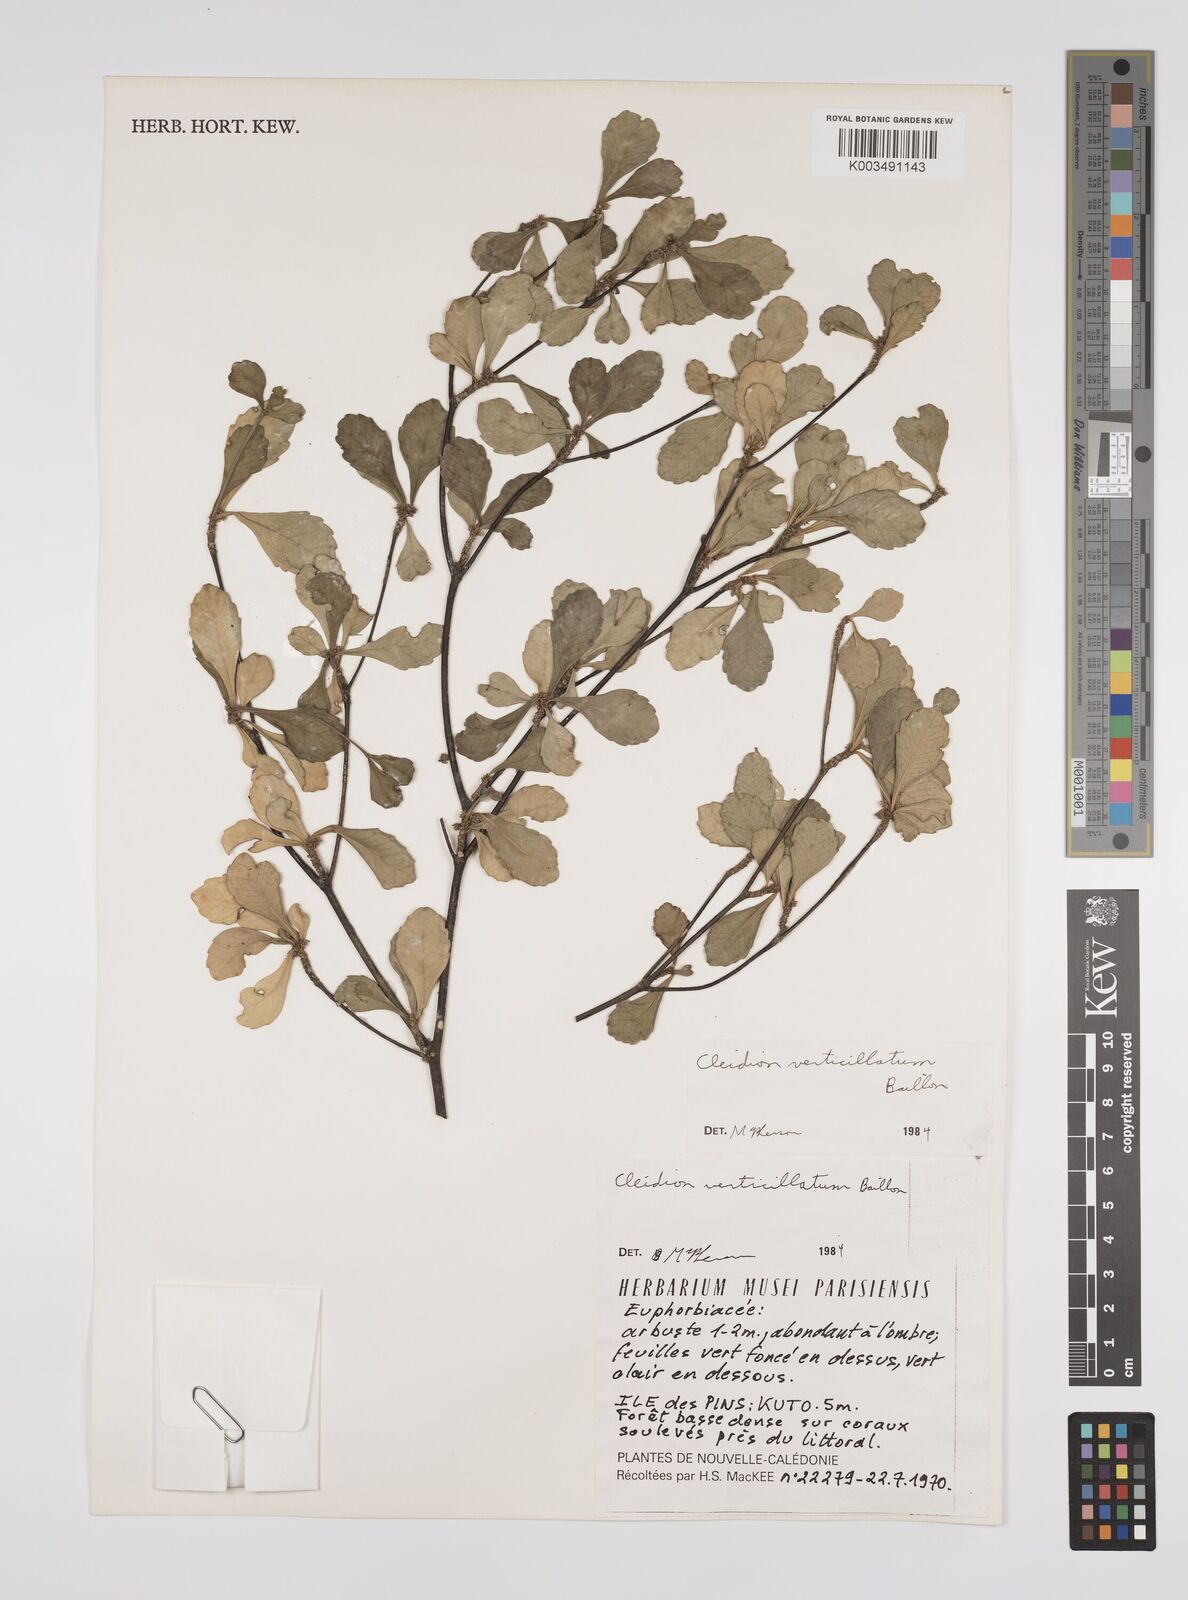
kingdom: Plantae
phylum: Tracheophyta
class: Magnoliopsida
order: Malpighiales
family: Euphorbiaceae
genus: Cleidion
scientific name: Cleidion verticillatum
